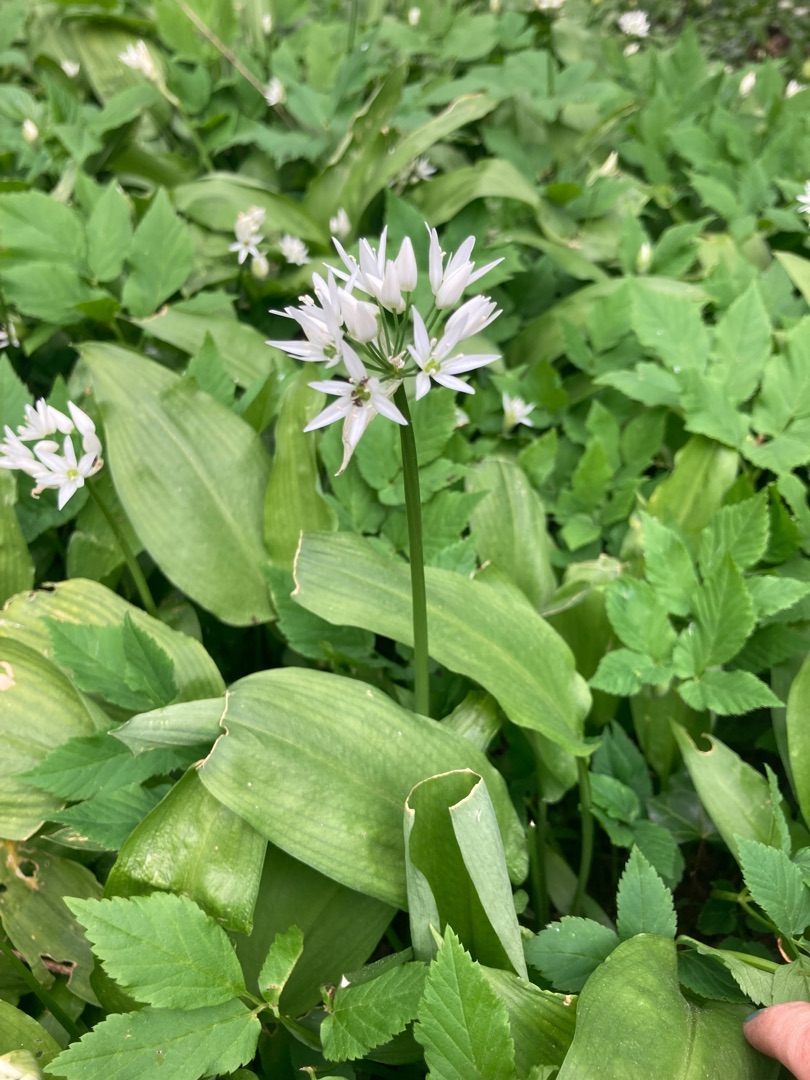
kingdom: Plantae
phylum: Tracheophyta
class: Liliopsida
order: Asparagales
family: Amaryllidaceae
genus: Allium
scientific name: Allium ursinum
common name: Rams-løg
